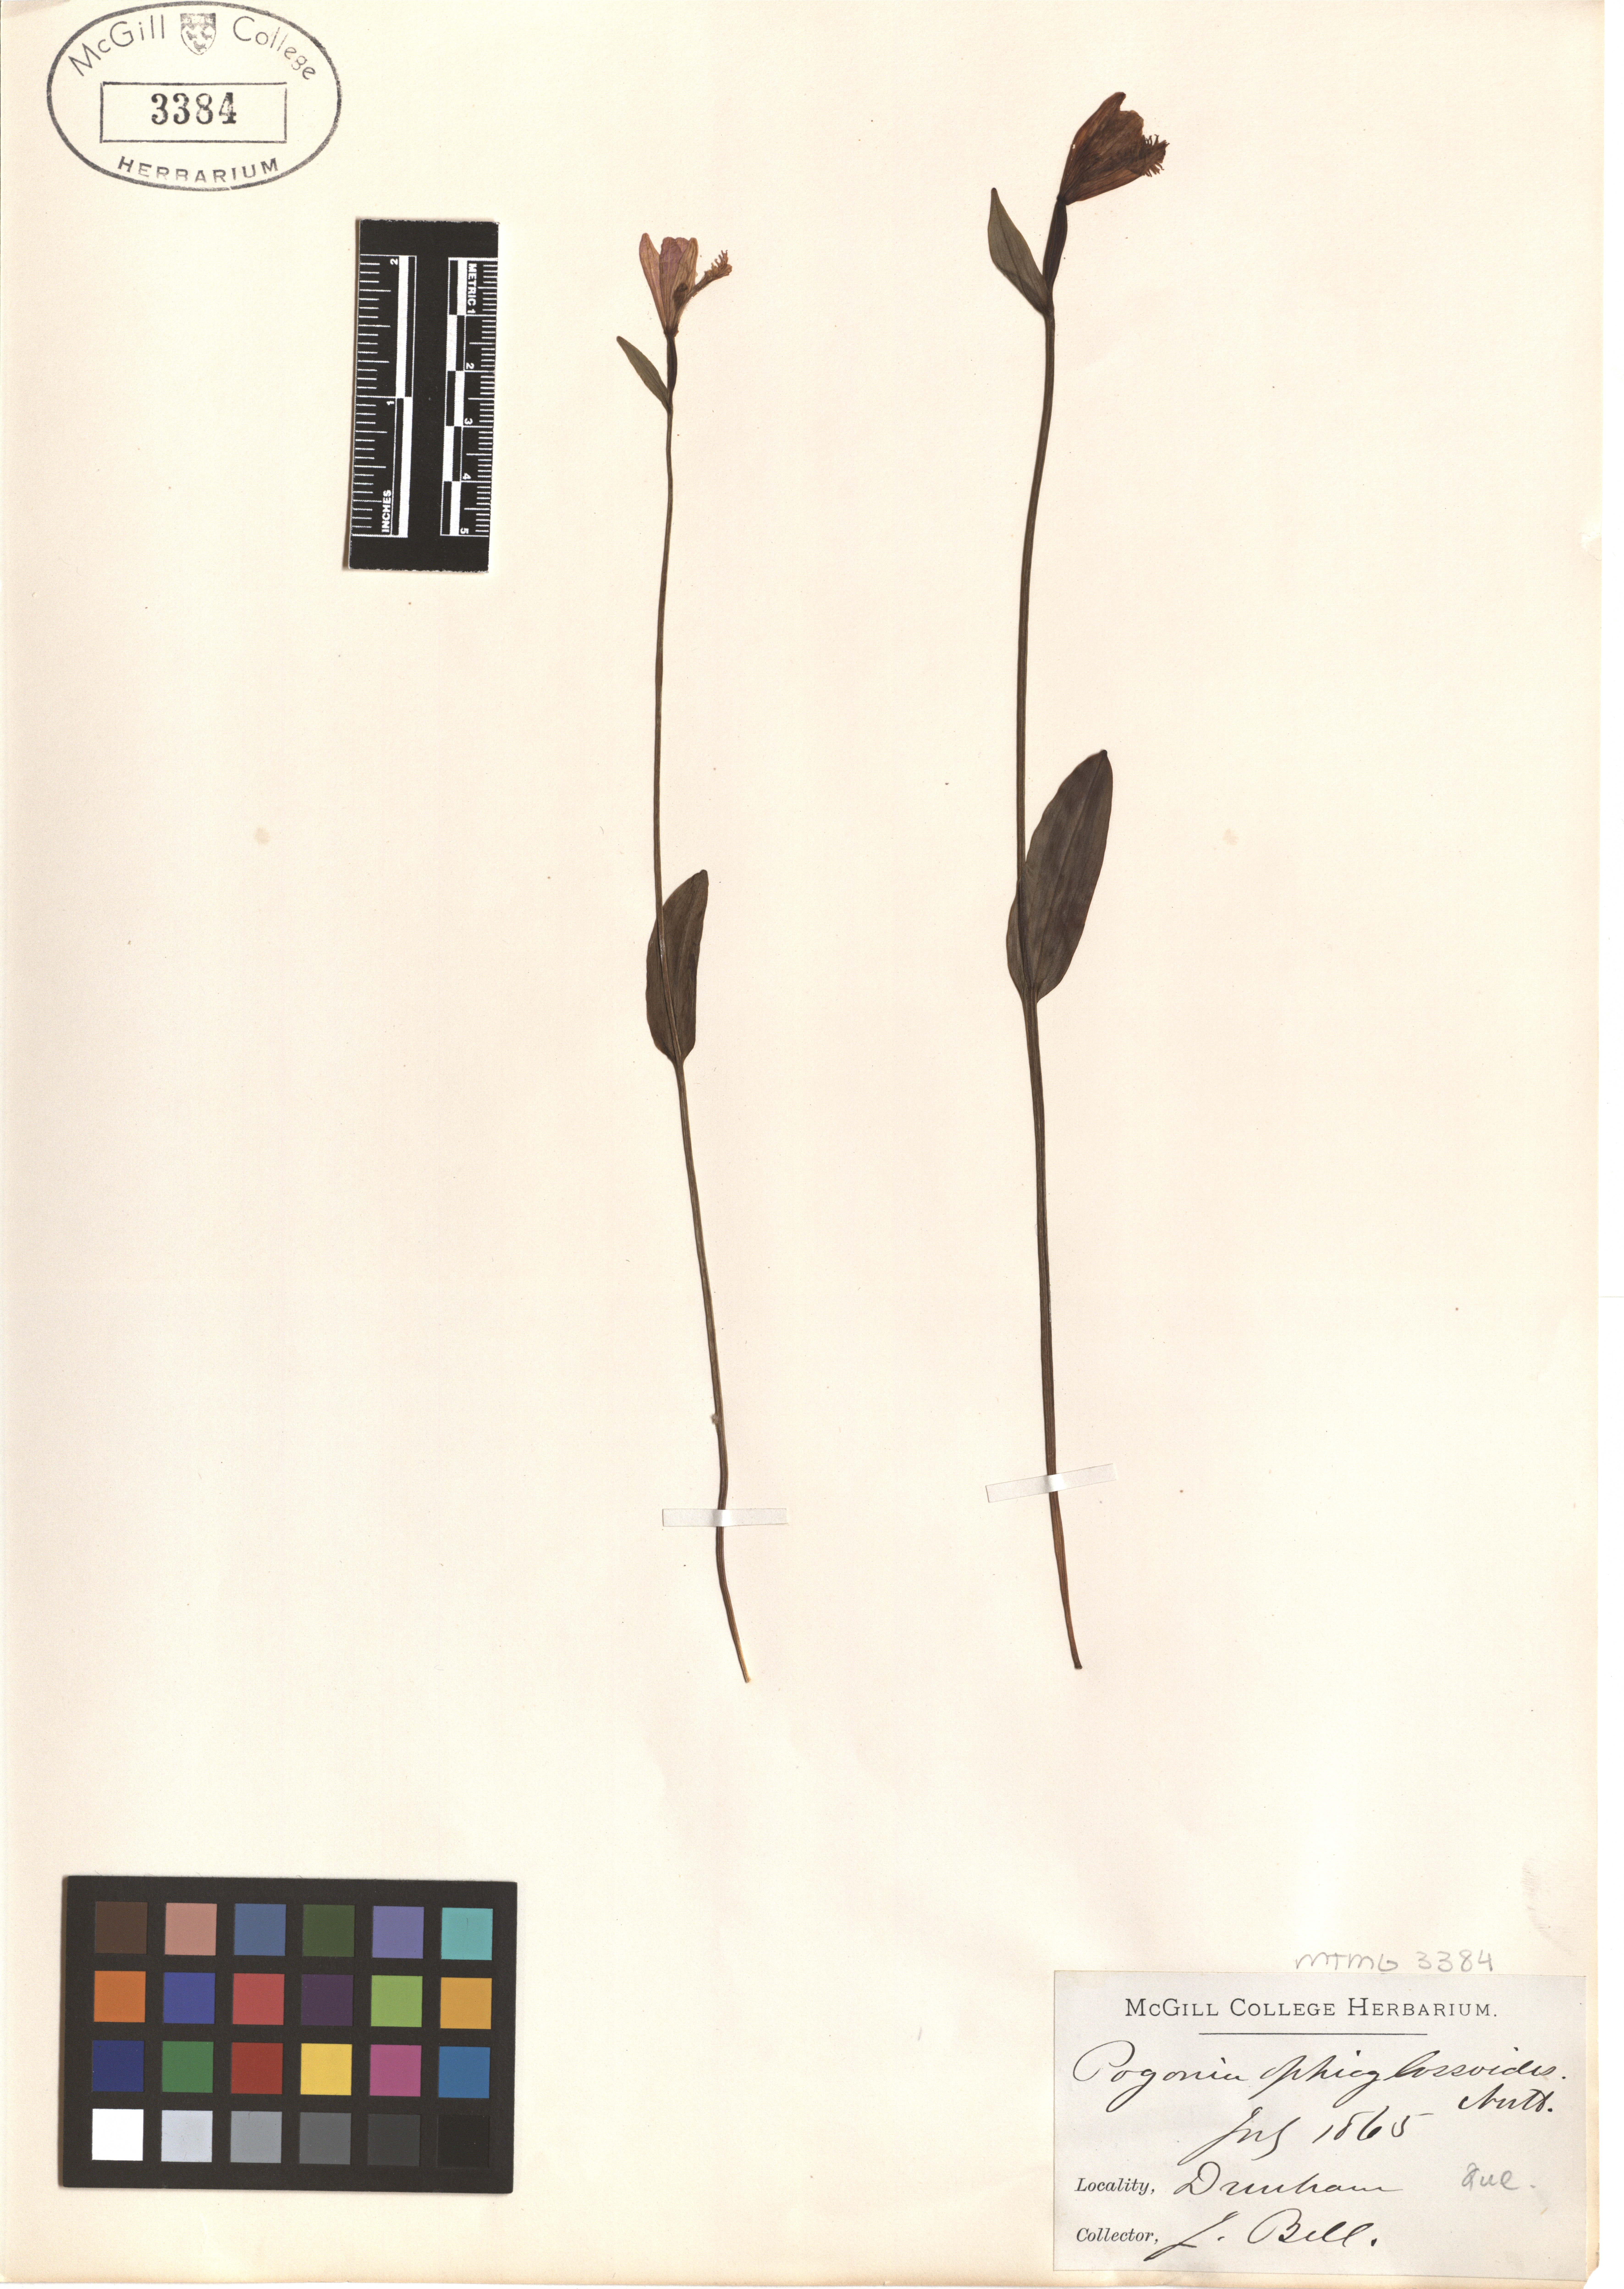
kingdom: Plantae
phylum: Tracheophyta
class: Liliopsida
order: Asparagales
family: Orchidaceae
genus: Pogonia
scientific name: Pogonia ophioglossoides
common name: Rose pogonia
